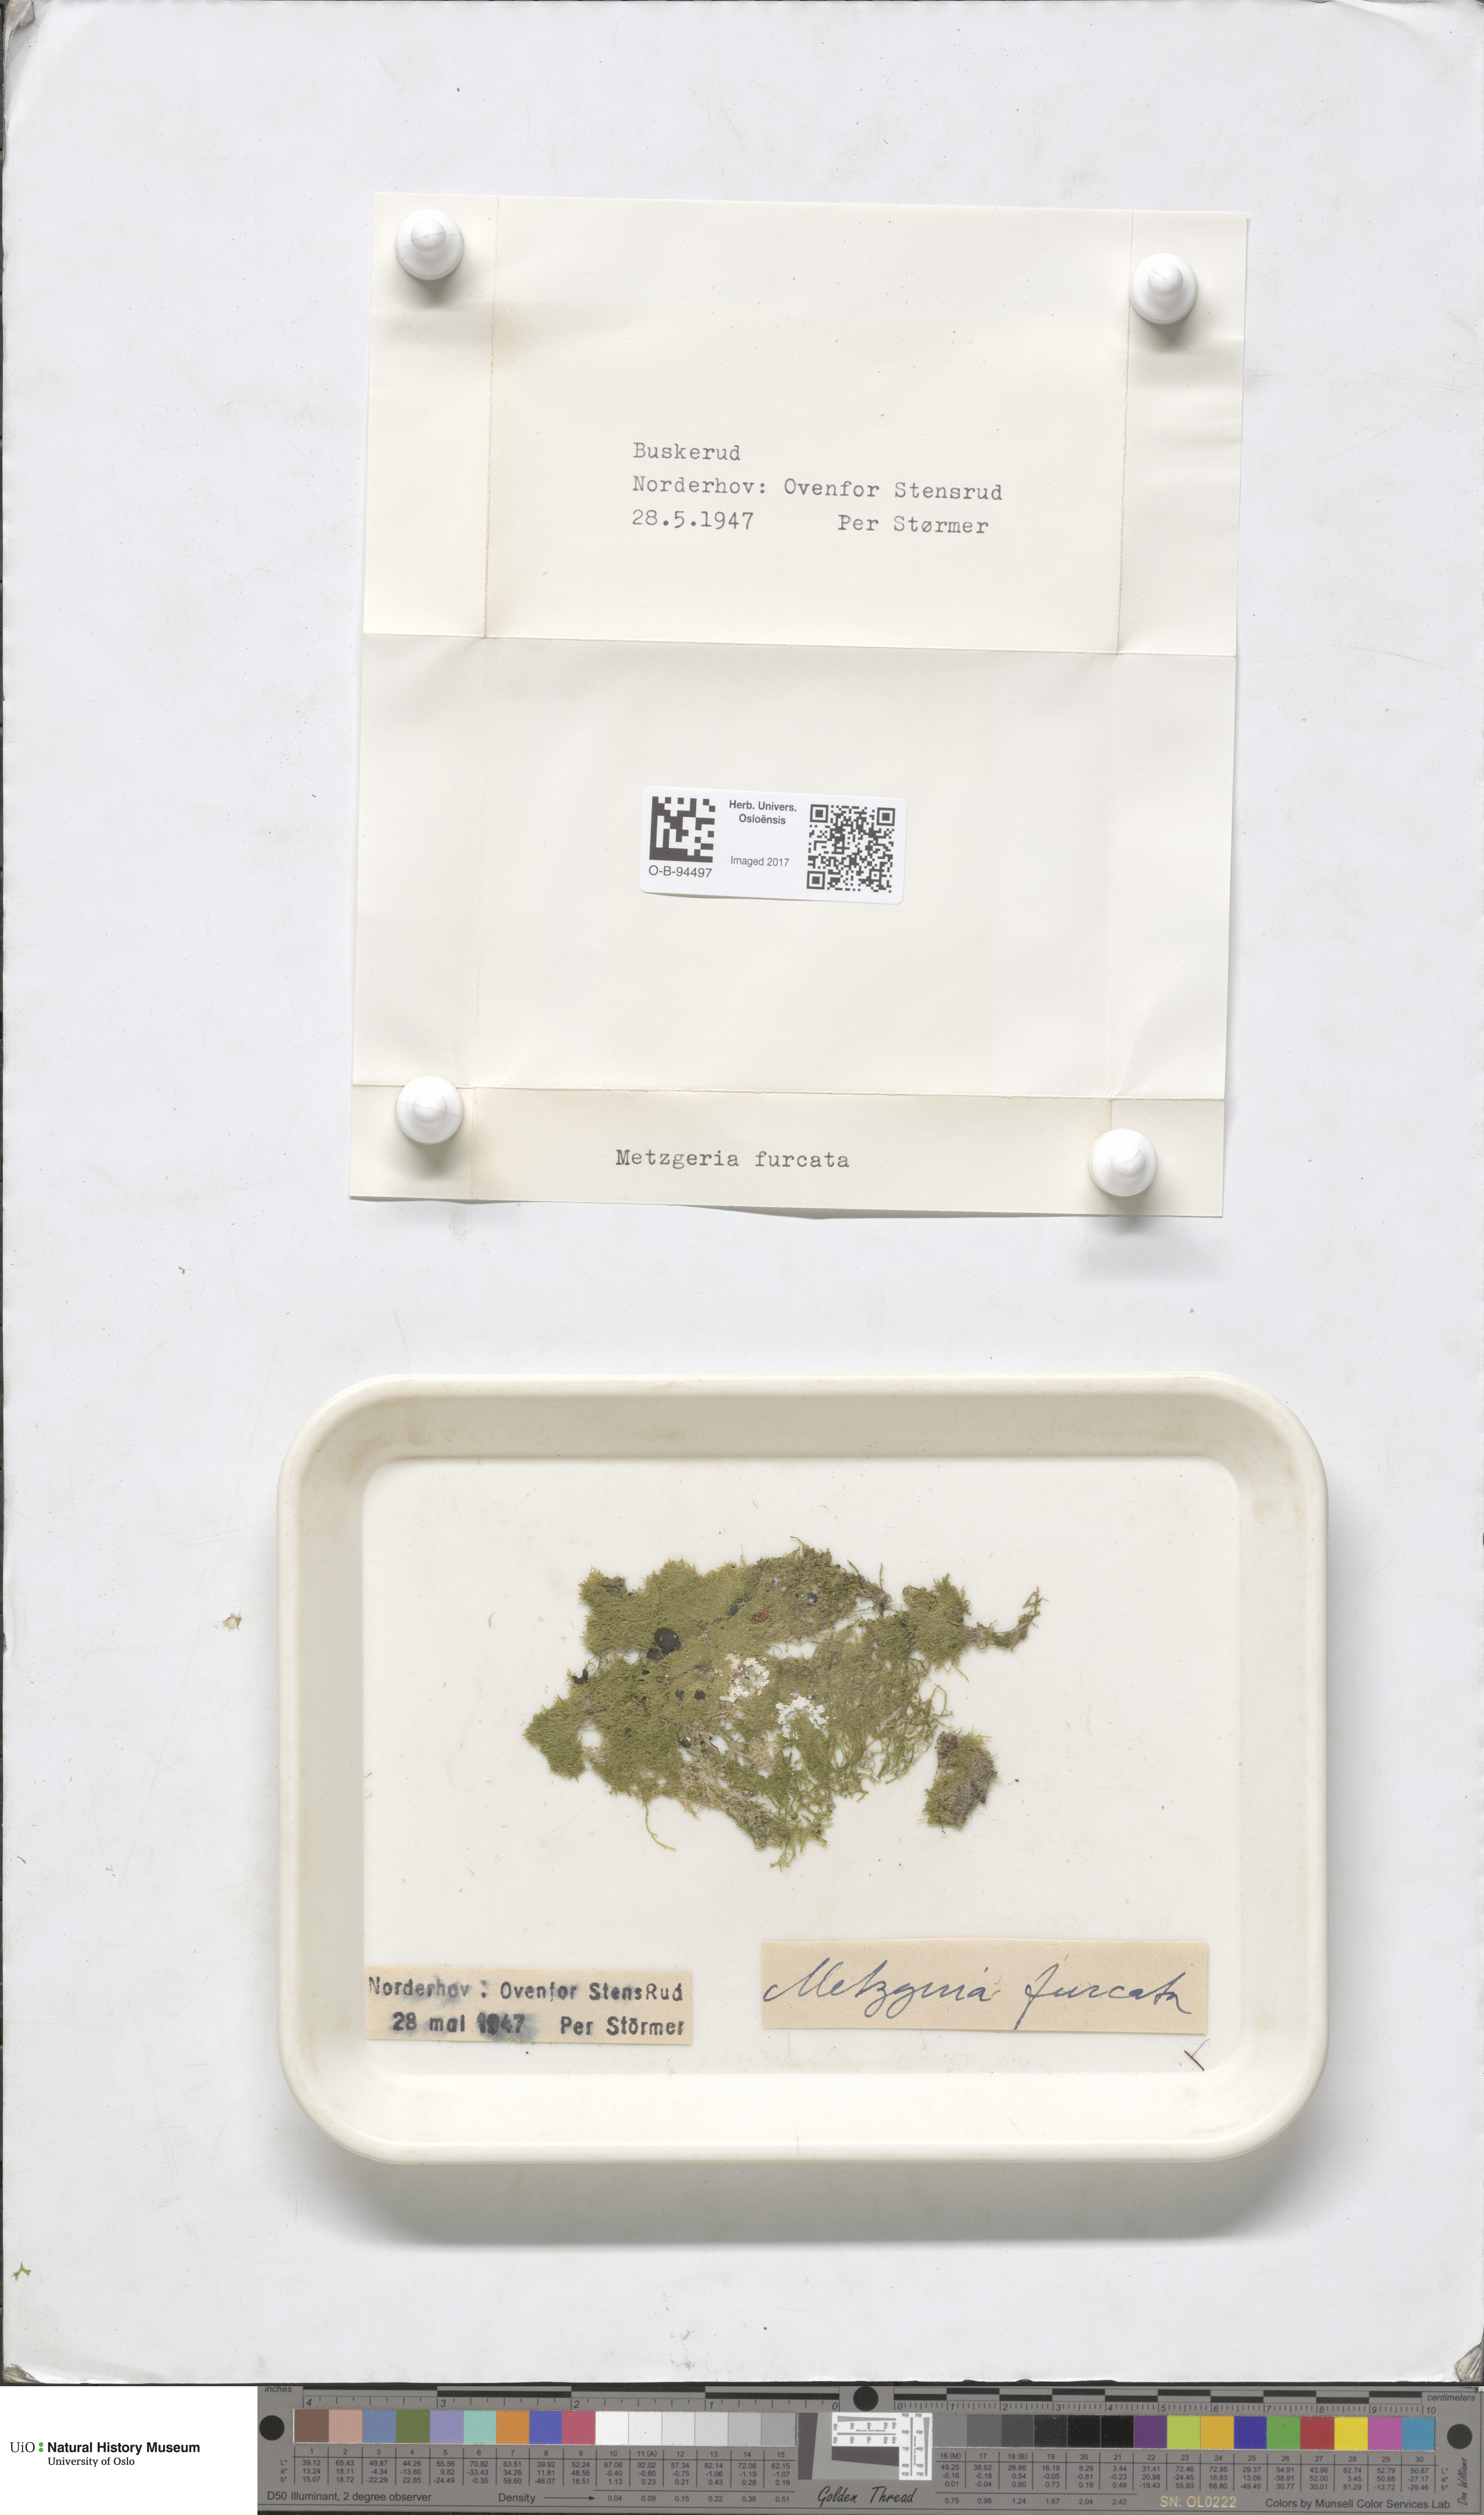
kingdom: Plantae
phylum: Marchantiophyta
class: Jungermanniopsida
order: Metzgeriales
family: Metzgeriaceae
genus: Metzgeria
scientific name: Metzgeria furcata
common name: Forked veilwort
